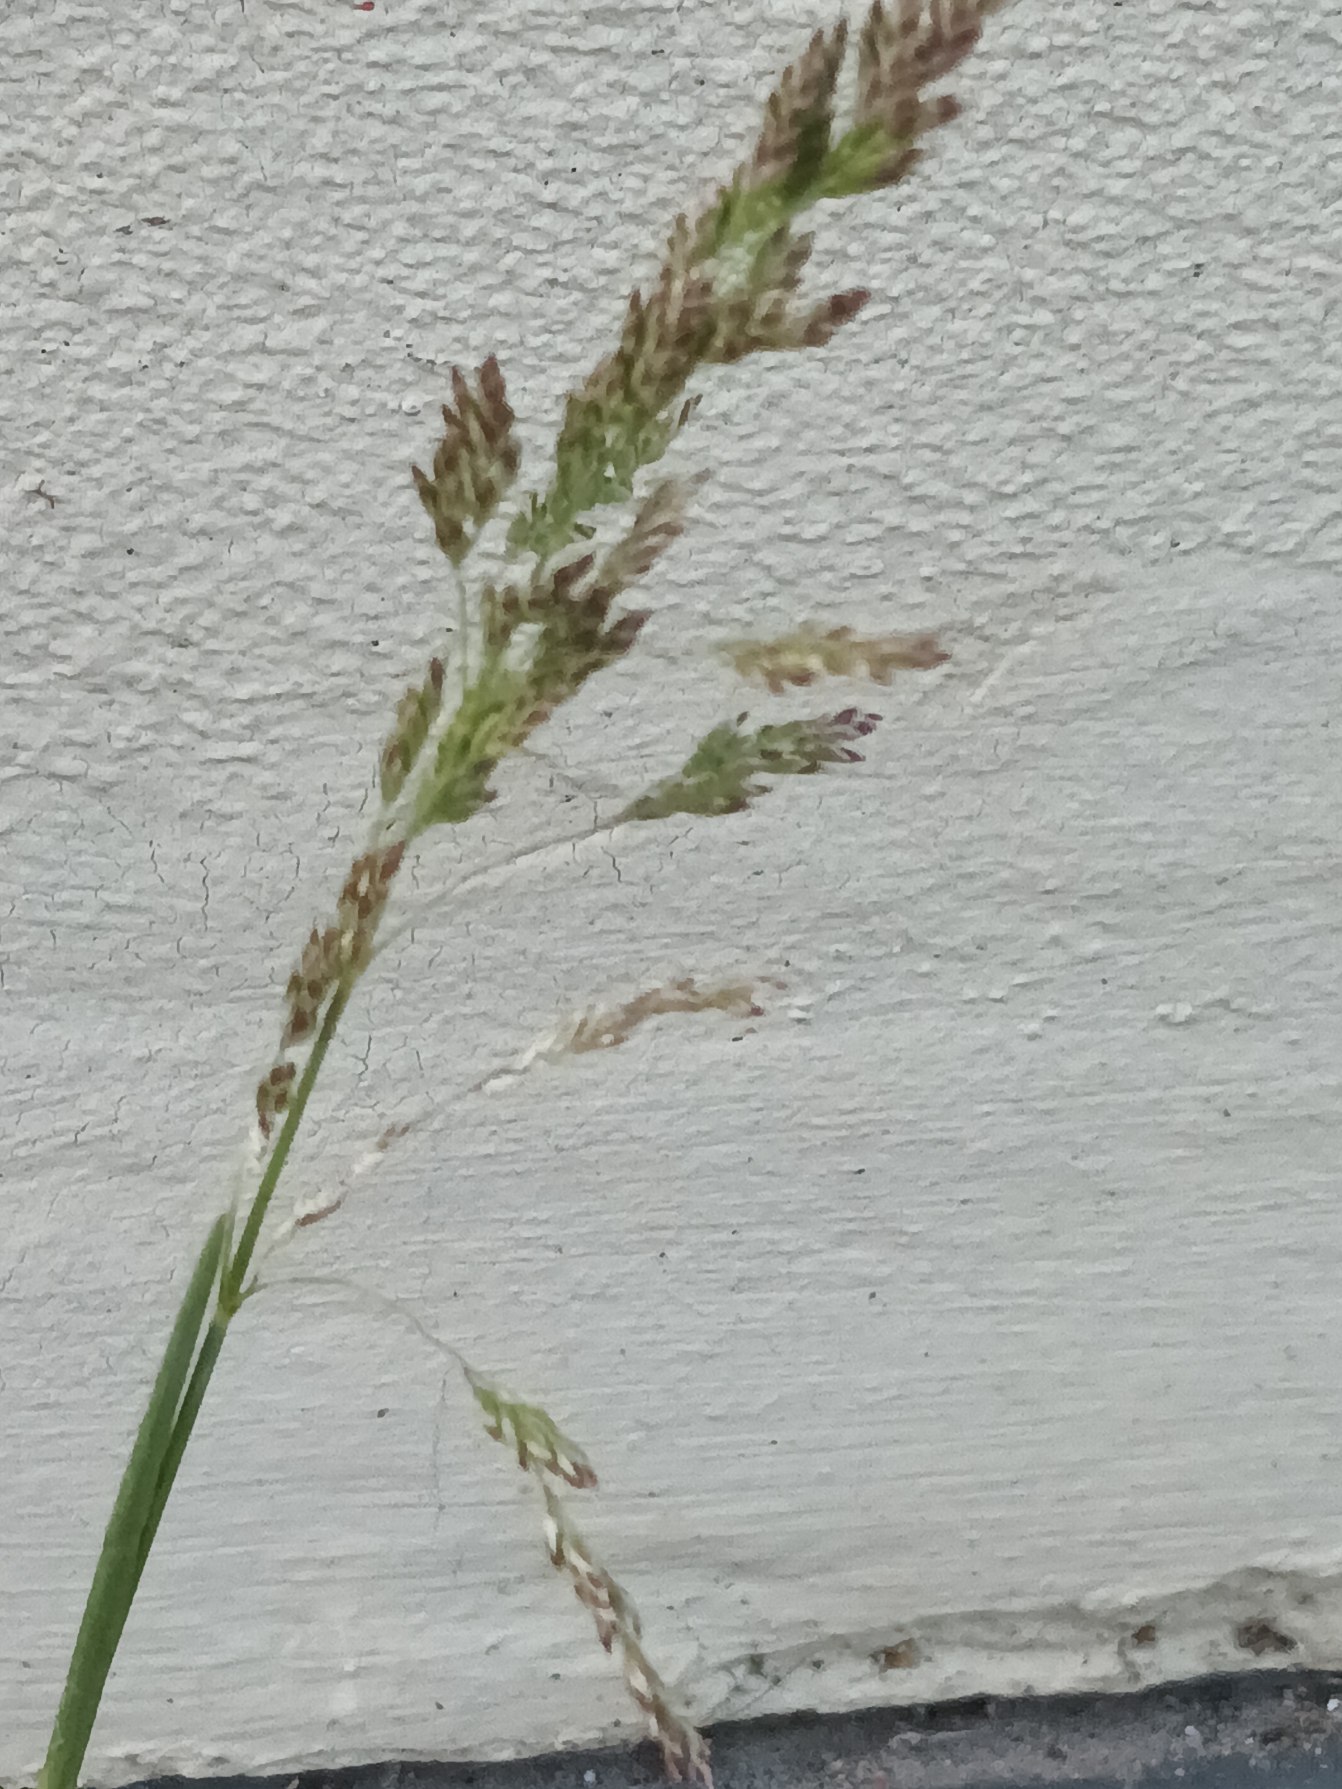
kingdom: Plantae
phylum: Tracheophyta
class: Liliopsida
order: Poales
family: Poaceae
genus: Poa
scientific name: Poa pratensis
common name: Eng-rapgræs
